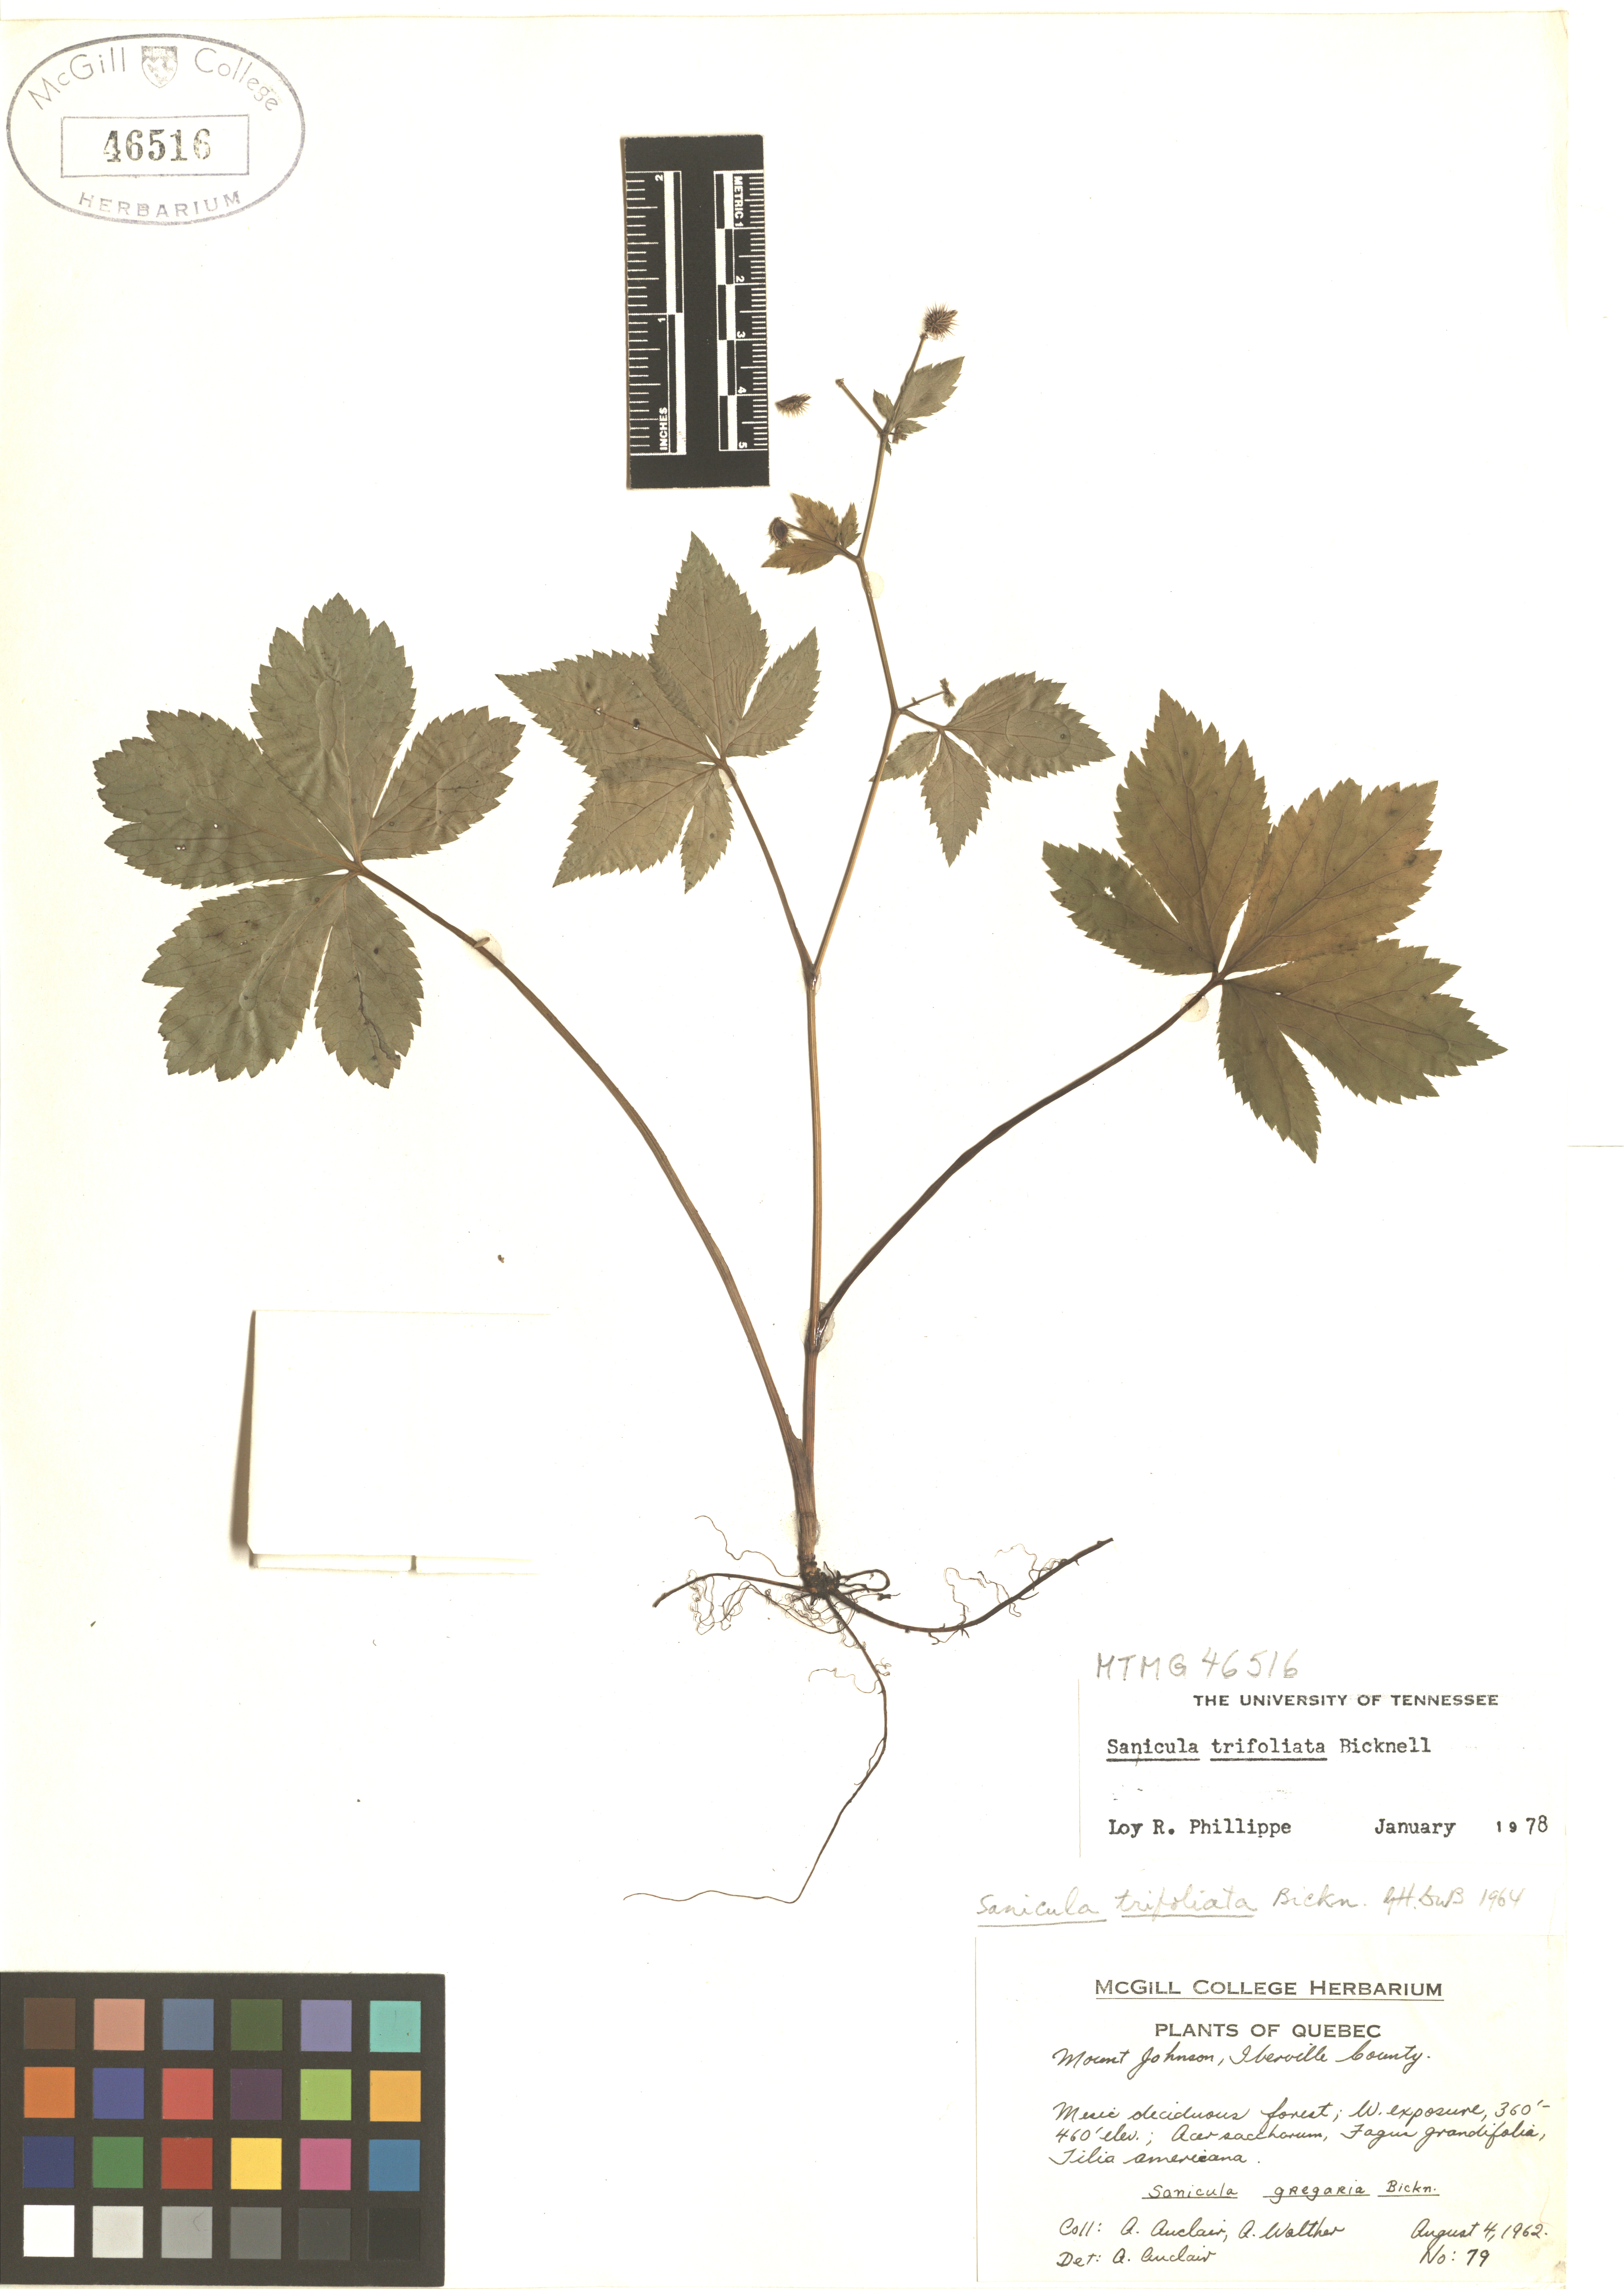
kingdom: Plantae
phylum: Tracheophyta
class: Magnoliopsida
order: Apiales
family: Apiaceae
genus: Sanicula
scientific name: Sanicula trifoliata
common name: Beaked sanicle
